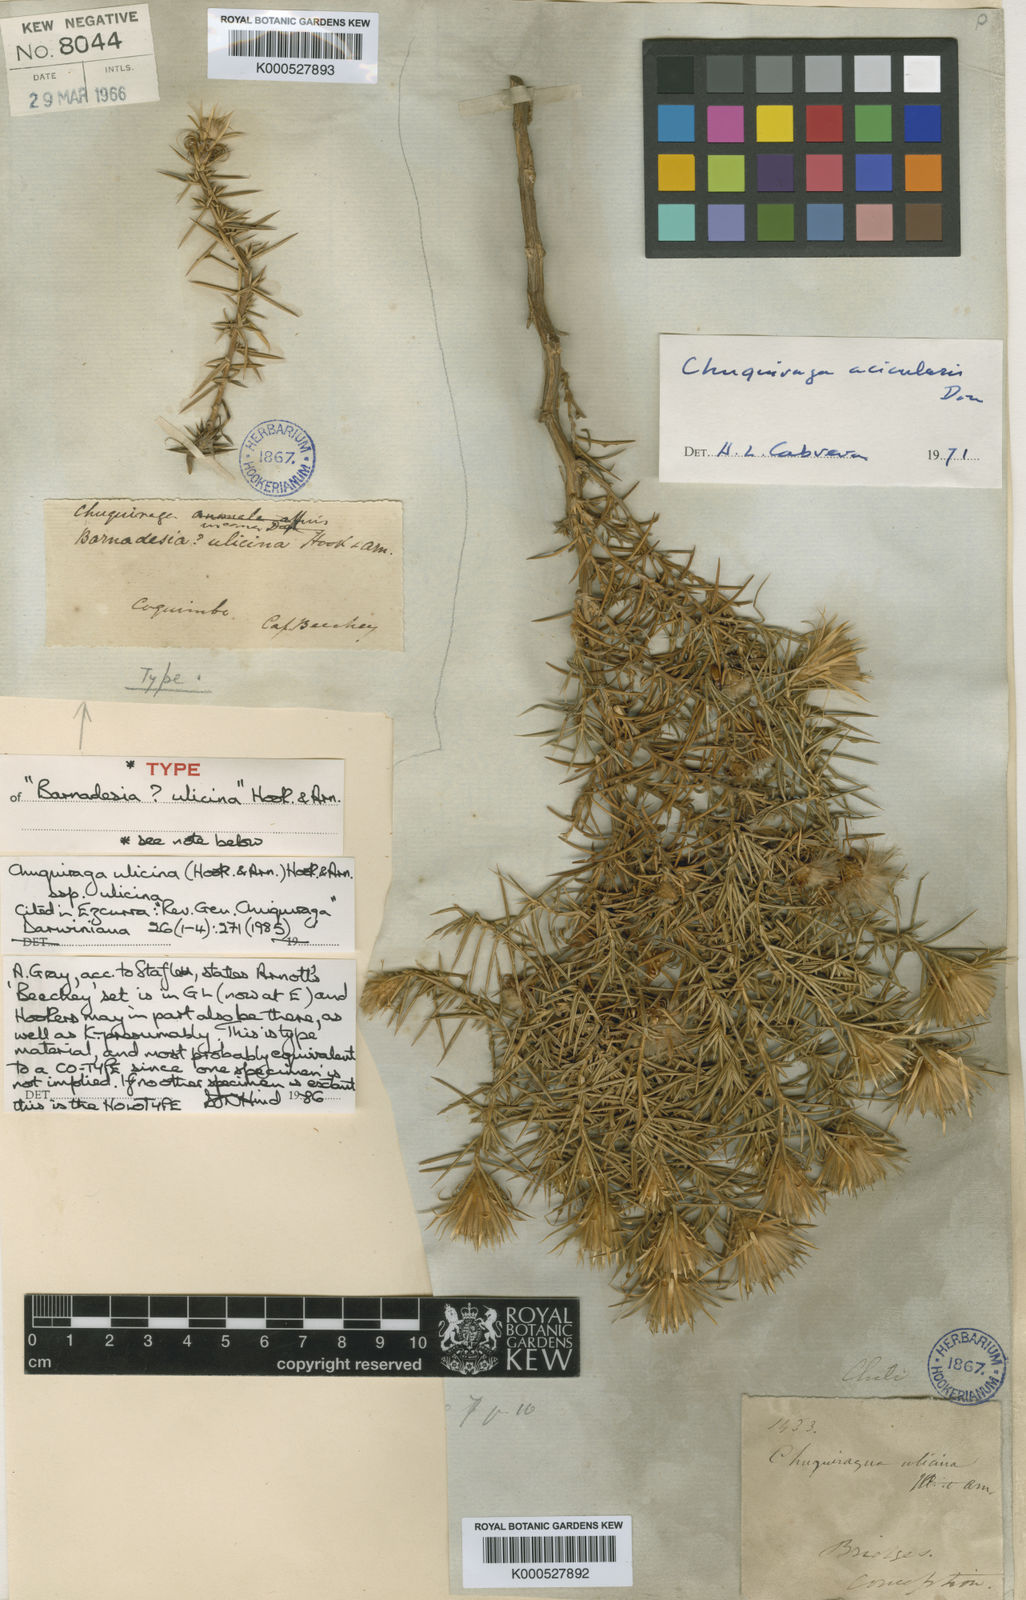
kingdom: Plantae
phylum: Tracheophyta
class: Magnoliopsida
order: Asterales
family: Asteraceae
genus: Chuquiraga
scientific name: Chuquiraga ulicina
